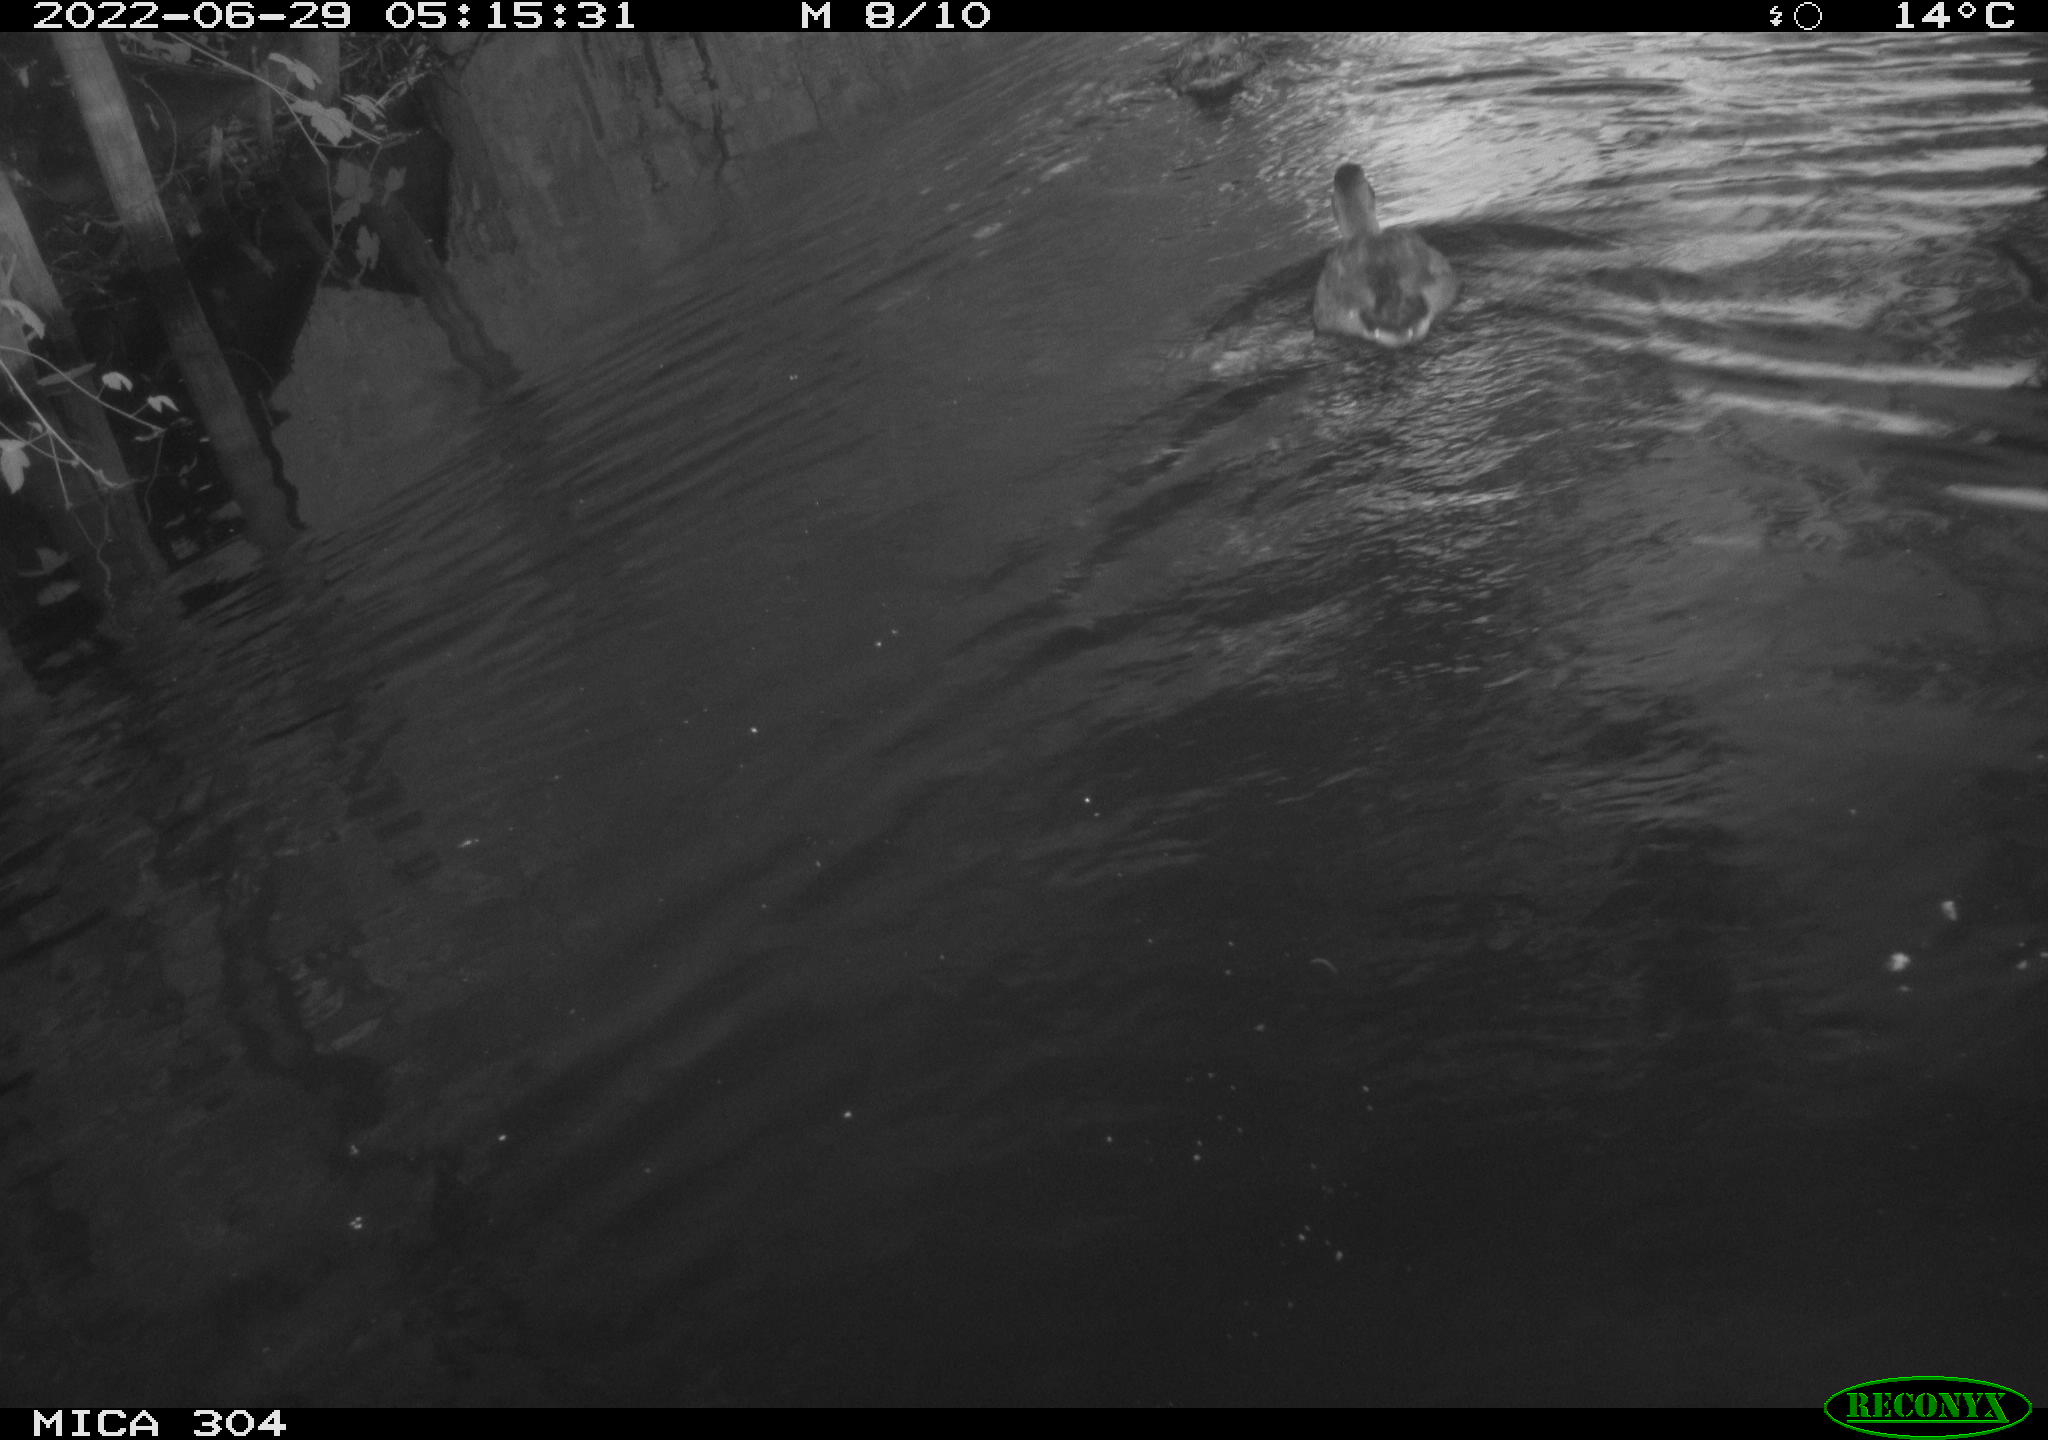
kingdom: Animalia
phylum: Chordata
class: Aves
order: Pelecaniformes
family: Ardeidae
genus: Ardea
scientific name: Ardea
